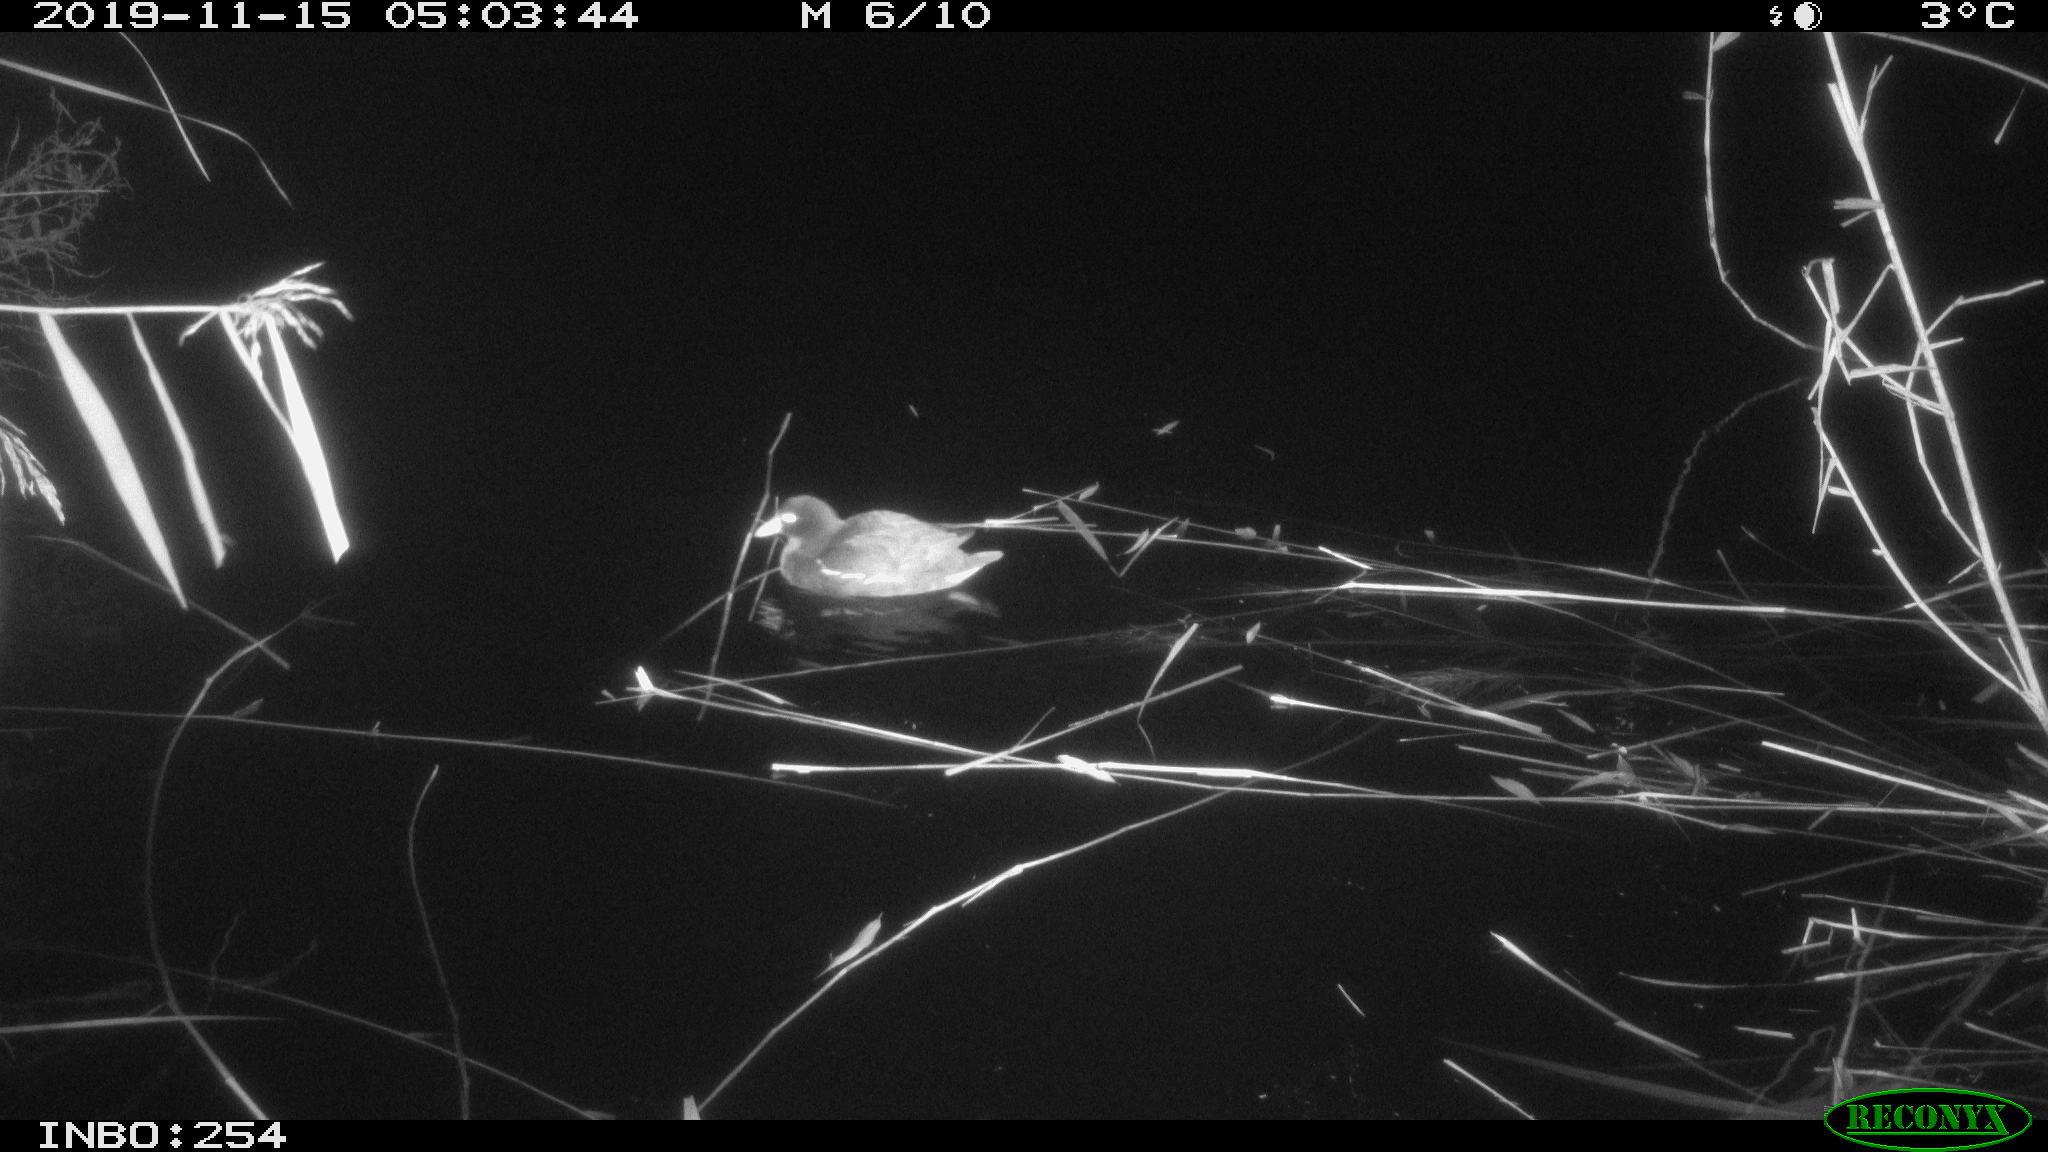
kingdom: Animalia
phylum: Chordata
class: Aves
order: Gruiformes
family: Rallidae
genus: Gallinula
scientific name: Gallinula chloropus
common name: Common moorhen
